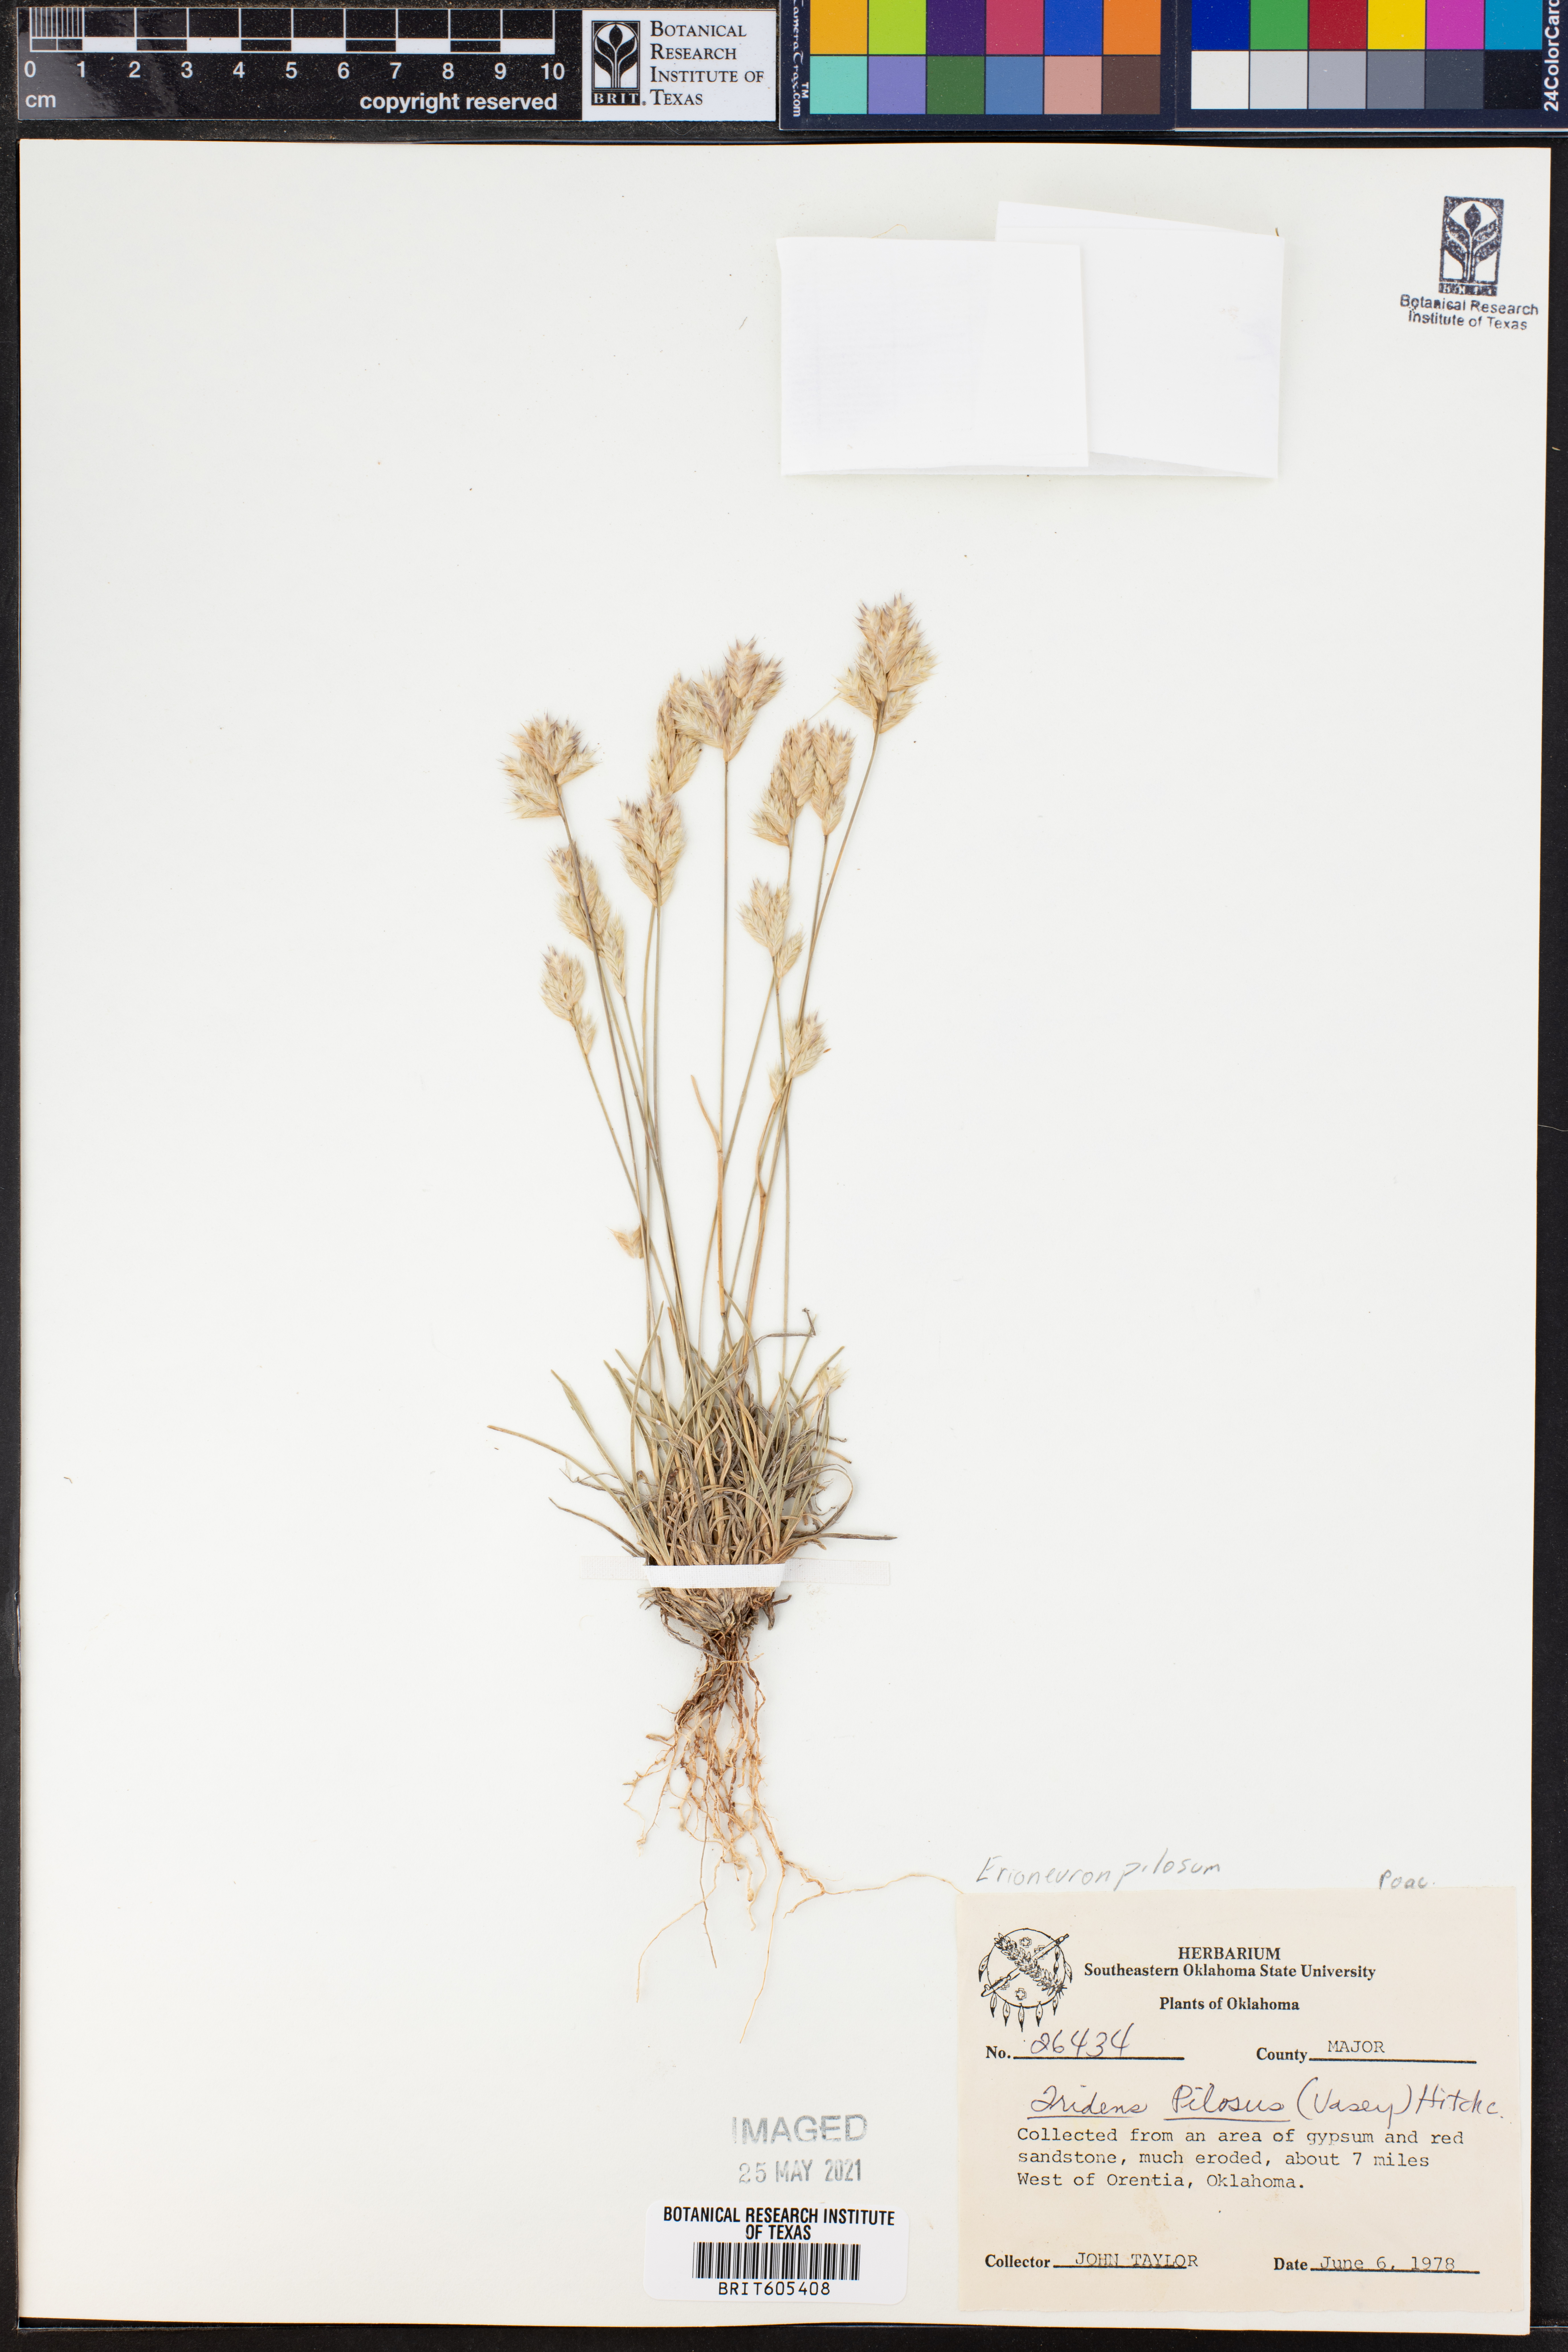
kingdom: Plantae
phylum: Tracheophyta
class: Liliopsida
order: Poales
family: Poaceae
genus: Tridentopsis
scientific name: Tridentopsis mutica
